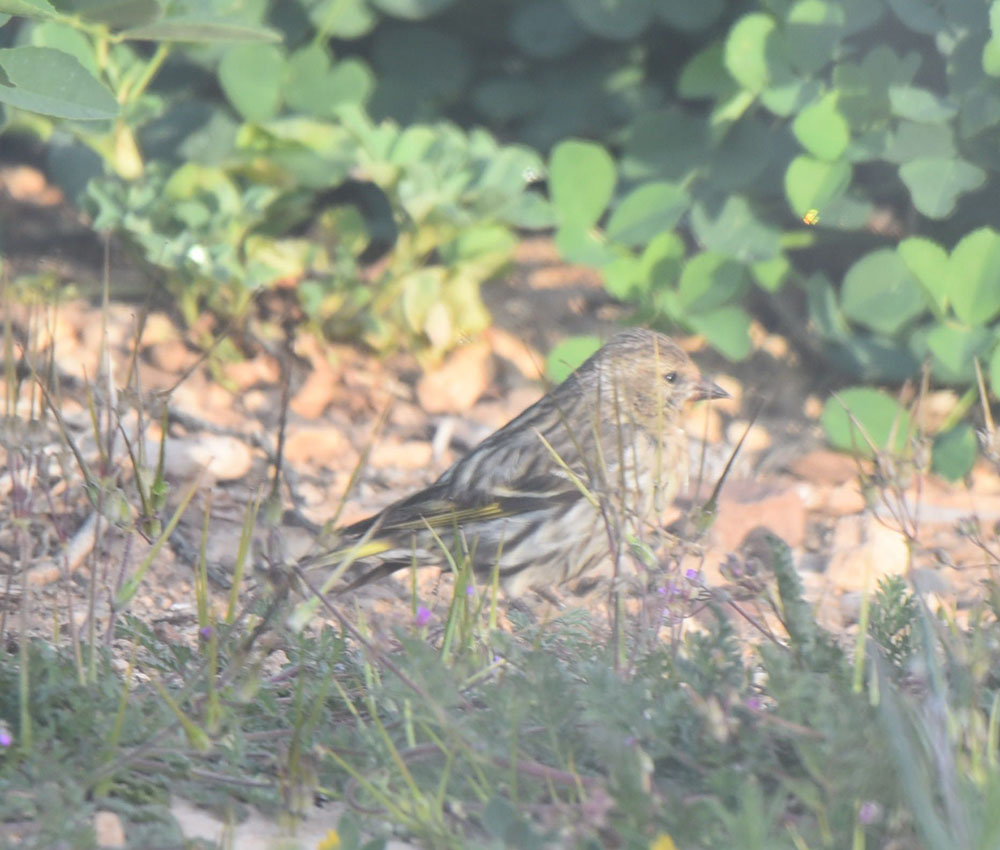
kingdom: Animalia
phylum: Chordata
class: Aves
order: Passeriformes
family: Fringillidae
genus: Spinus
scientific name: Spinus pinus
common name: Pine siskin
